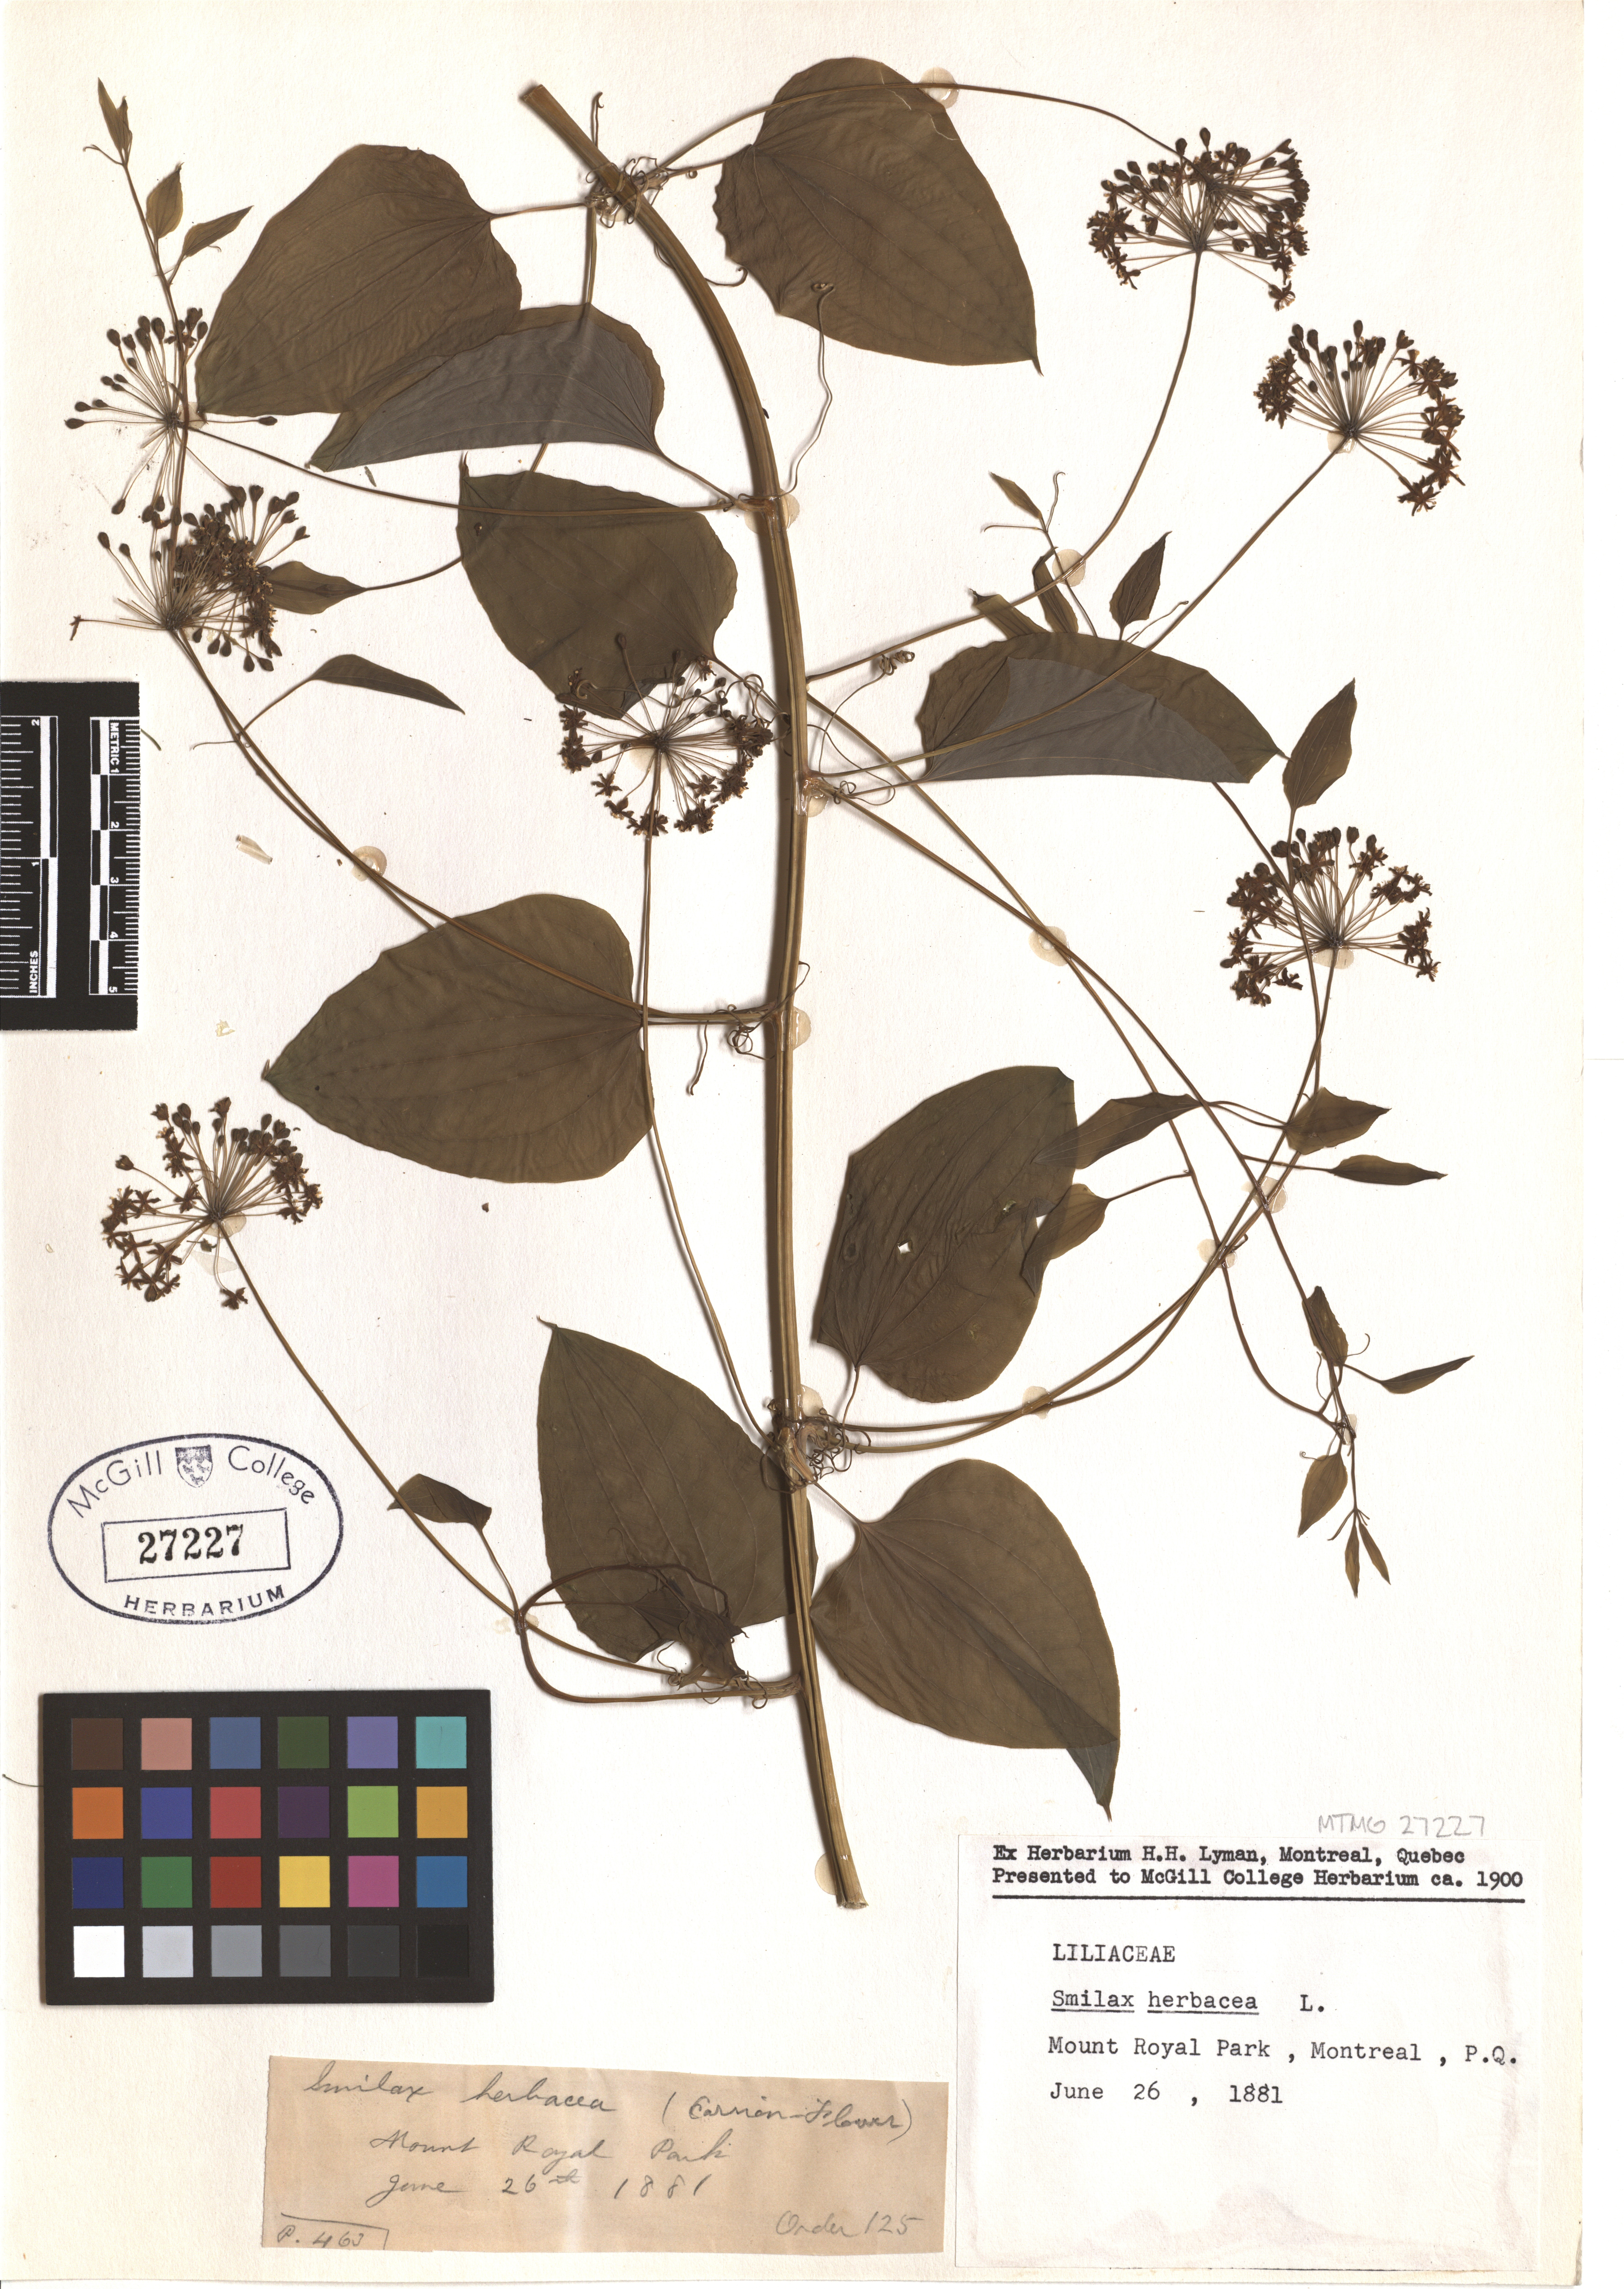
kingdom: Plantae
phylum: Tracheophyta
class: Liliopsida
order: Liliales
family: Smilacaceae
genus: Smilax
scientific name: Smilax herbacea
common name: Jacob's-ladder
